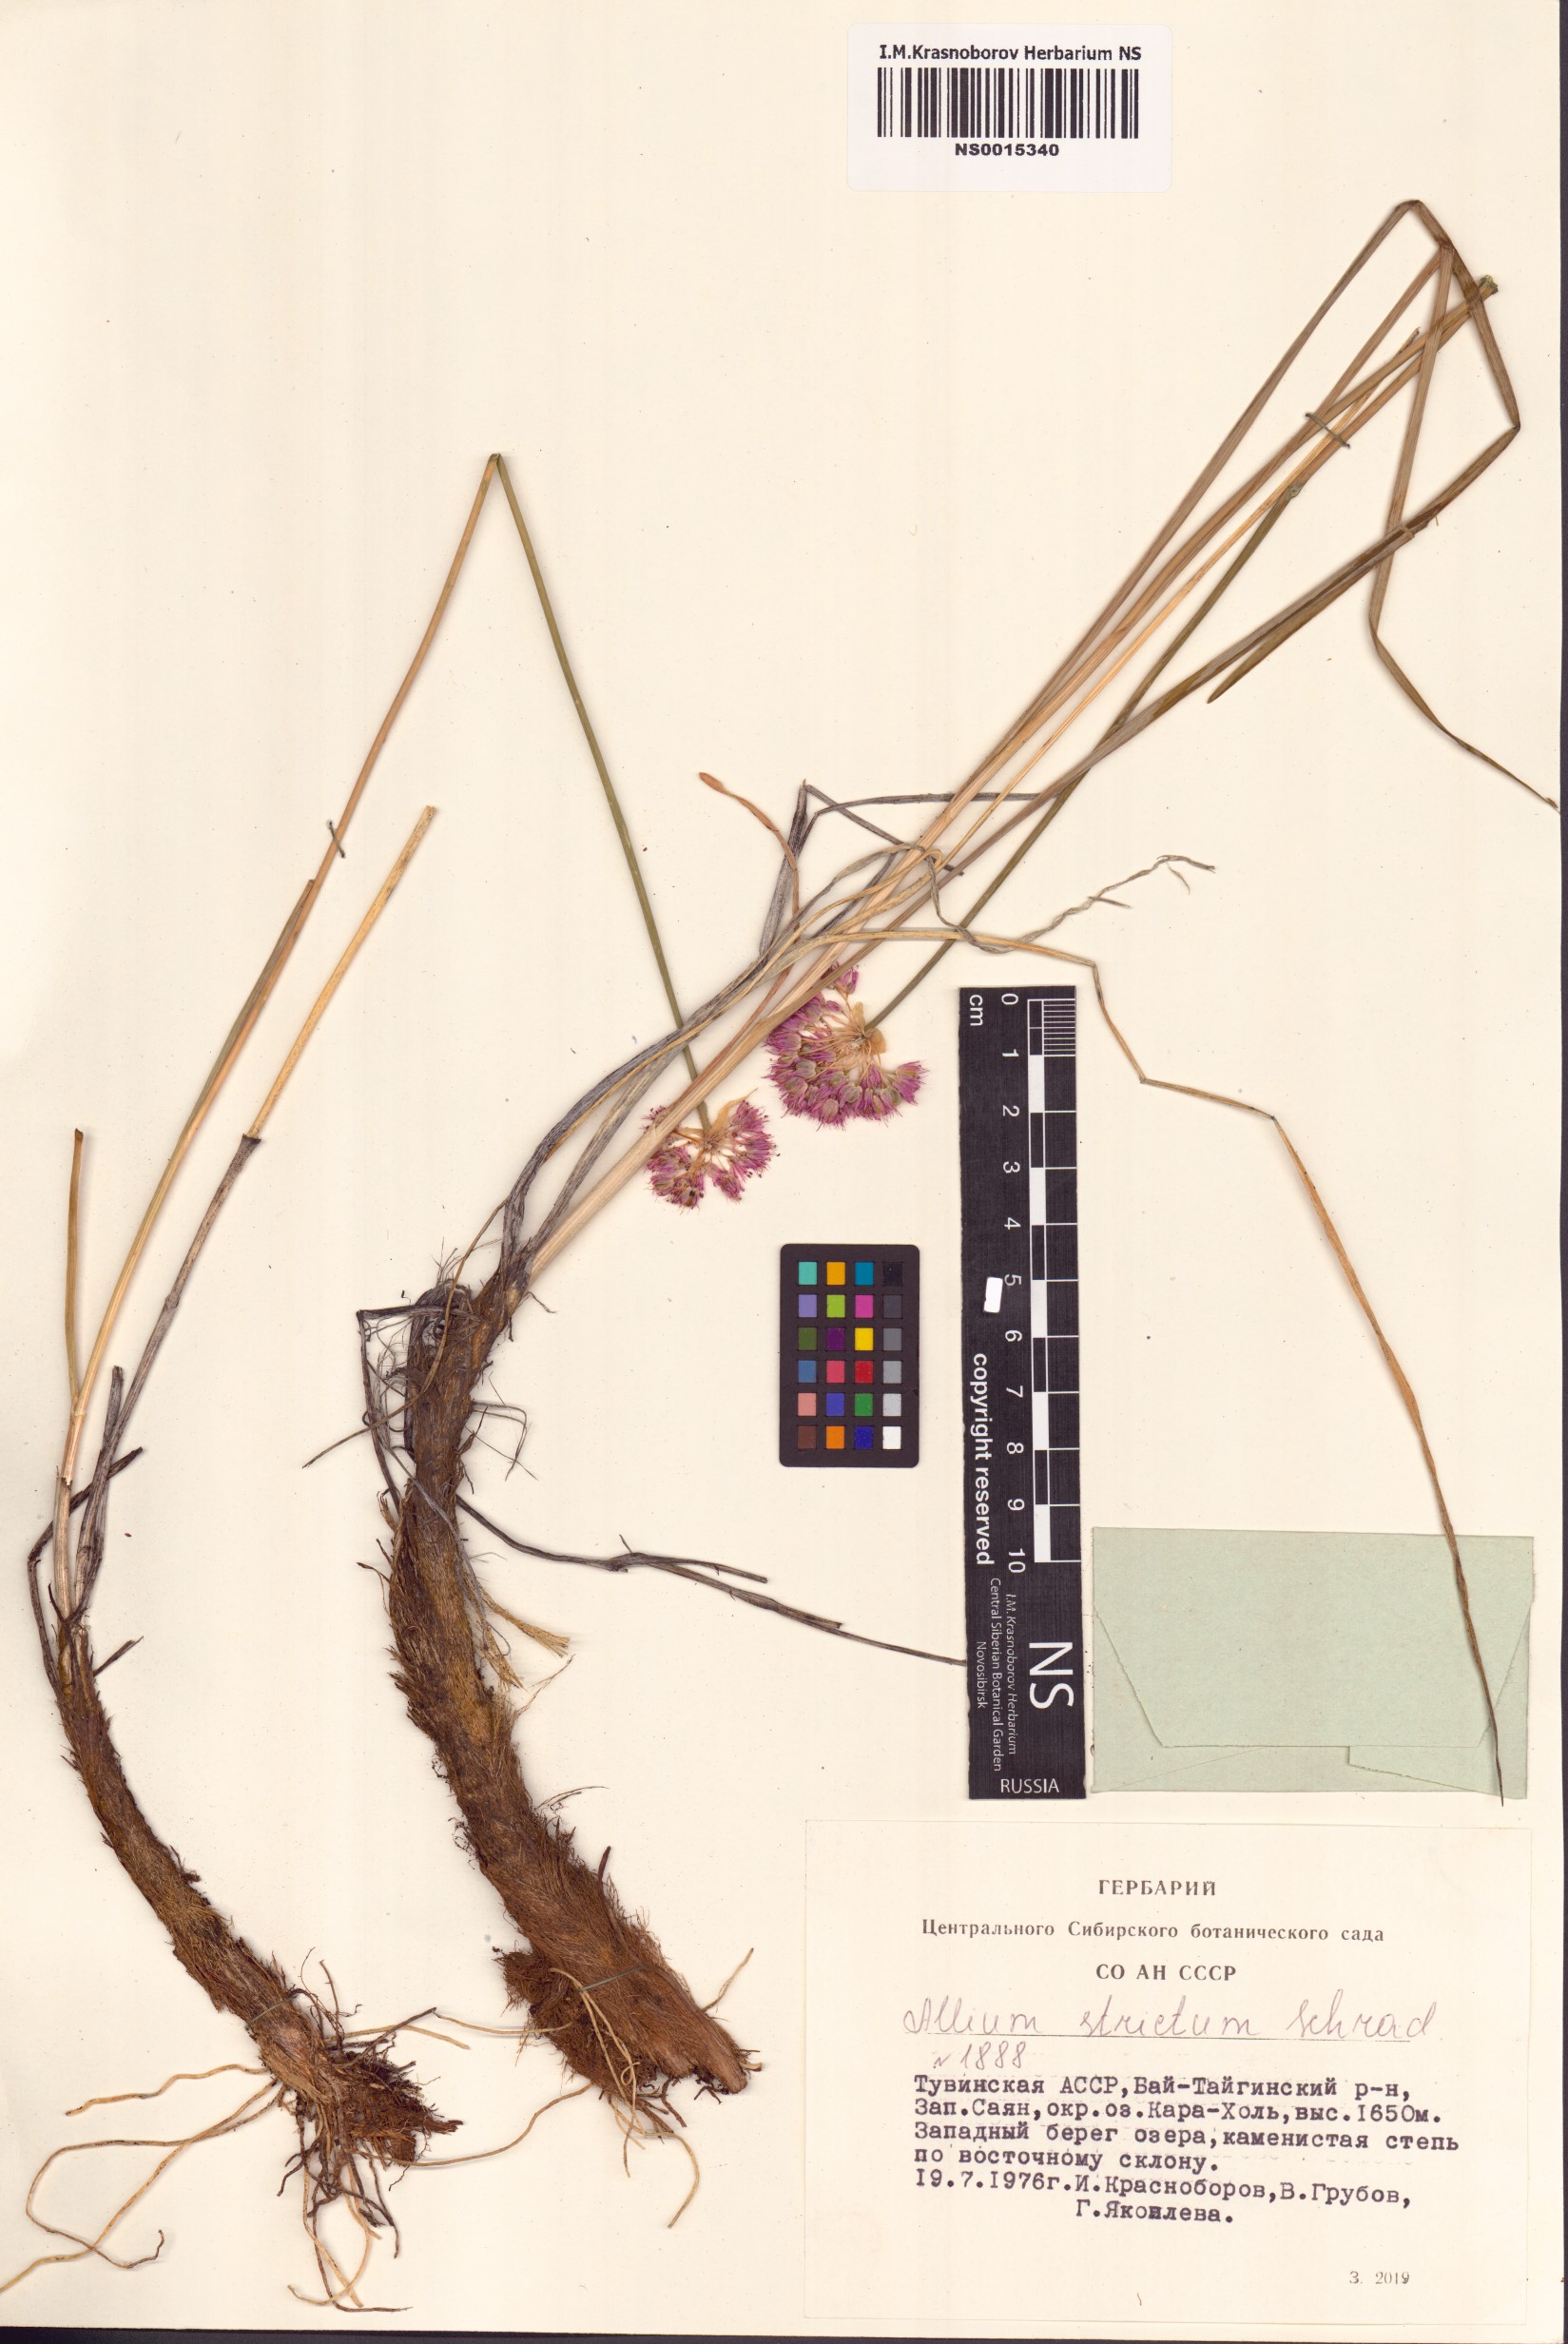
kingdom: Plantae
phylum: Tracheophyta
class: Liliopsida
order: Asparagales
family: Amaryllidaceae
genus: Allium
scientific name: Allium strictum
